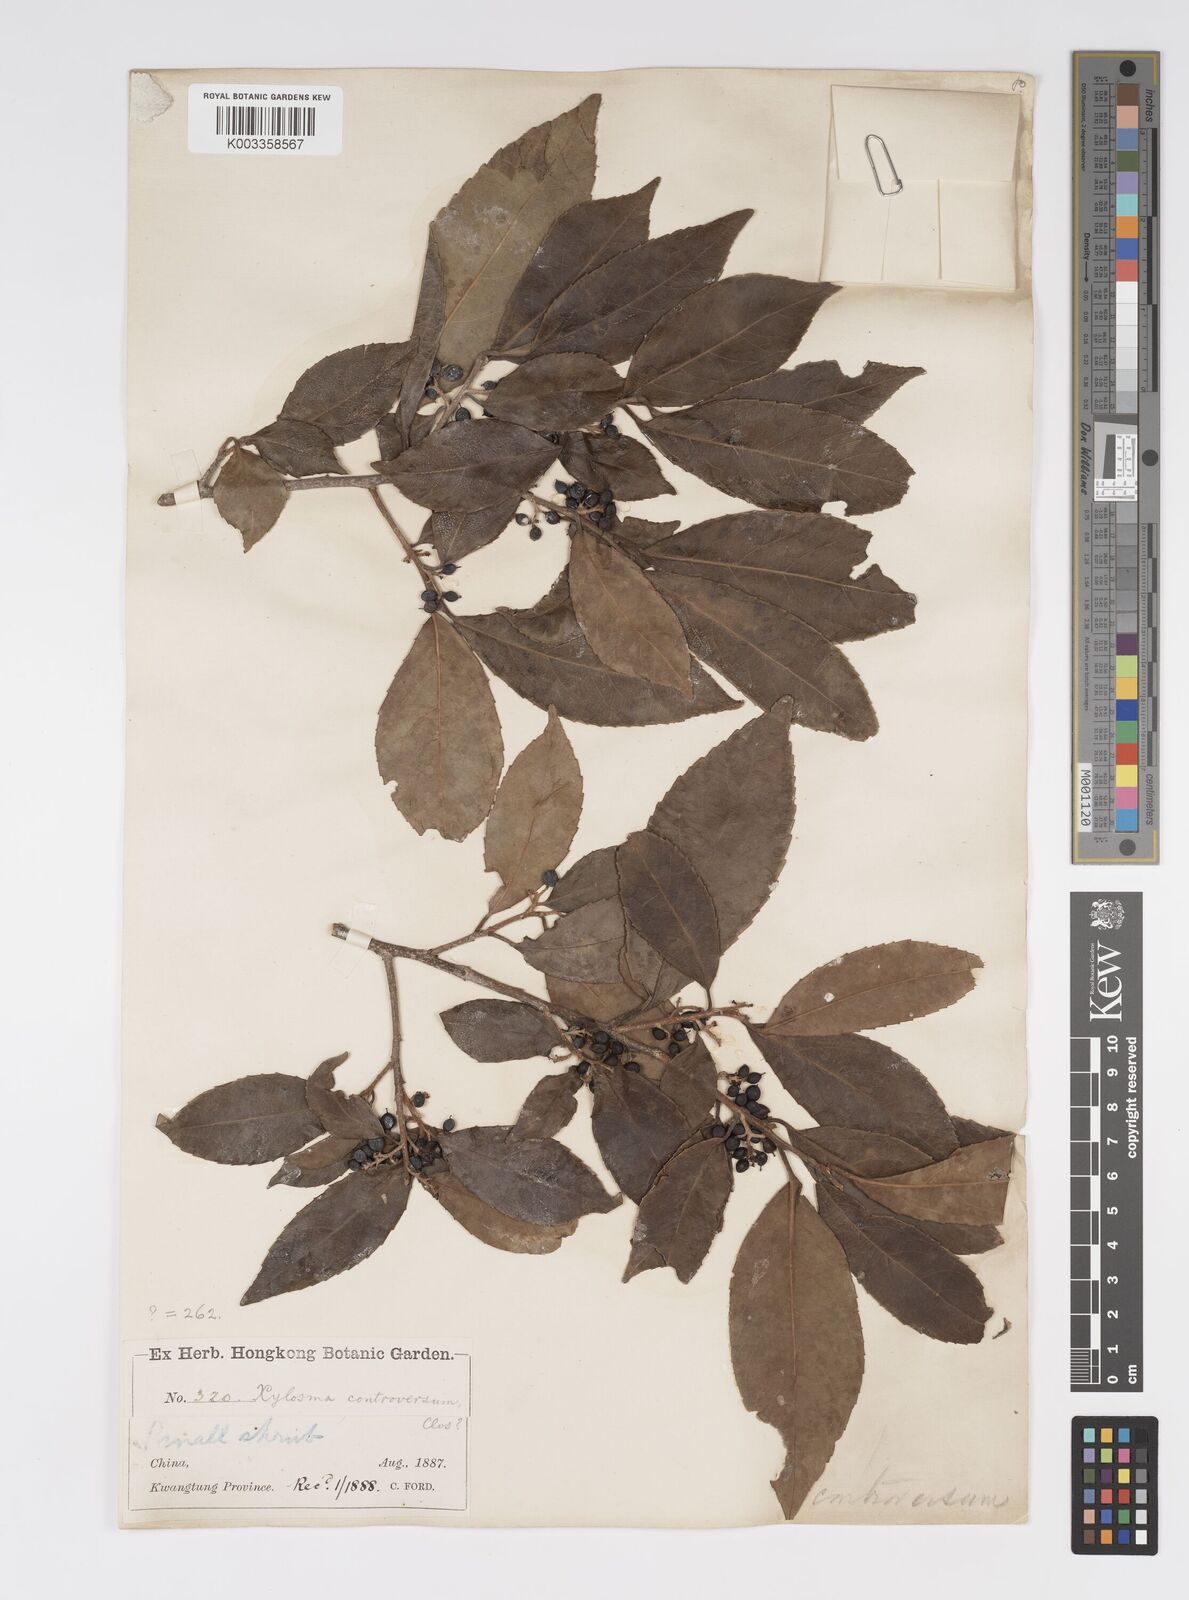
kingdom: Plantae
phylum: Tracheophyta
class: Magnoliopsida
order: Malpighiales
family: Salicaceae
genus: Xylosma
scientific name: Xylosma controversa
